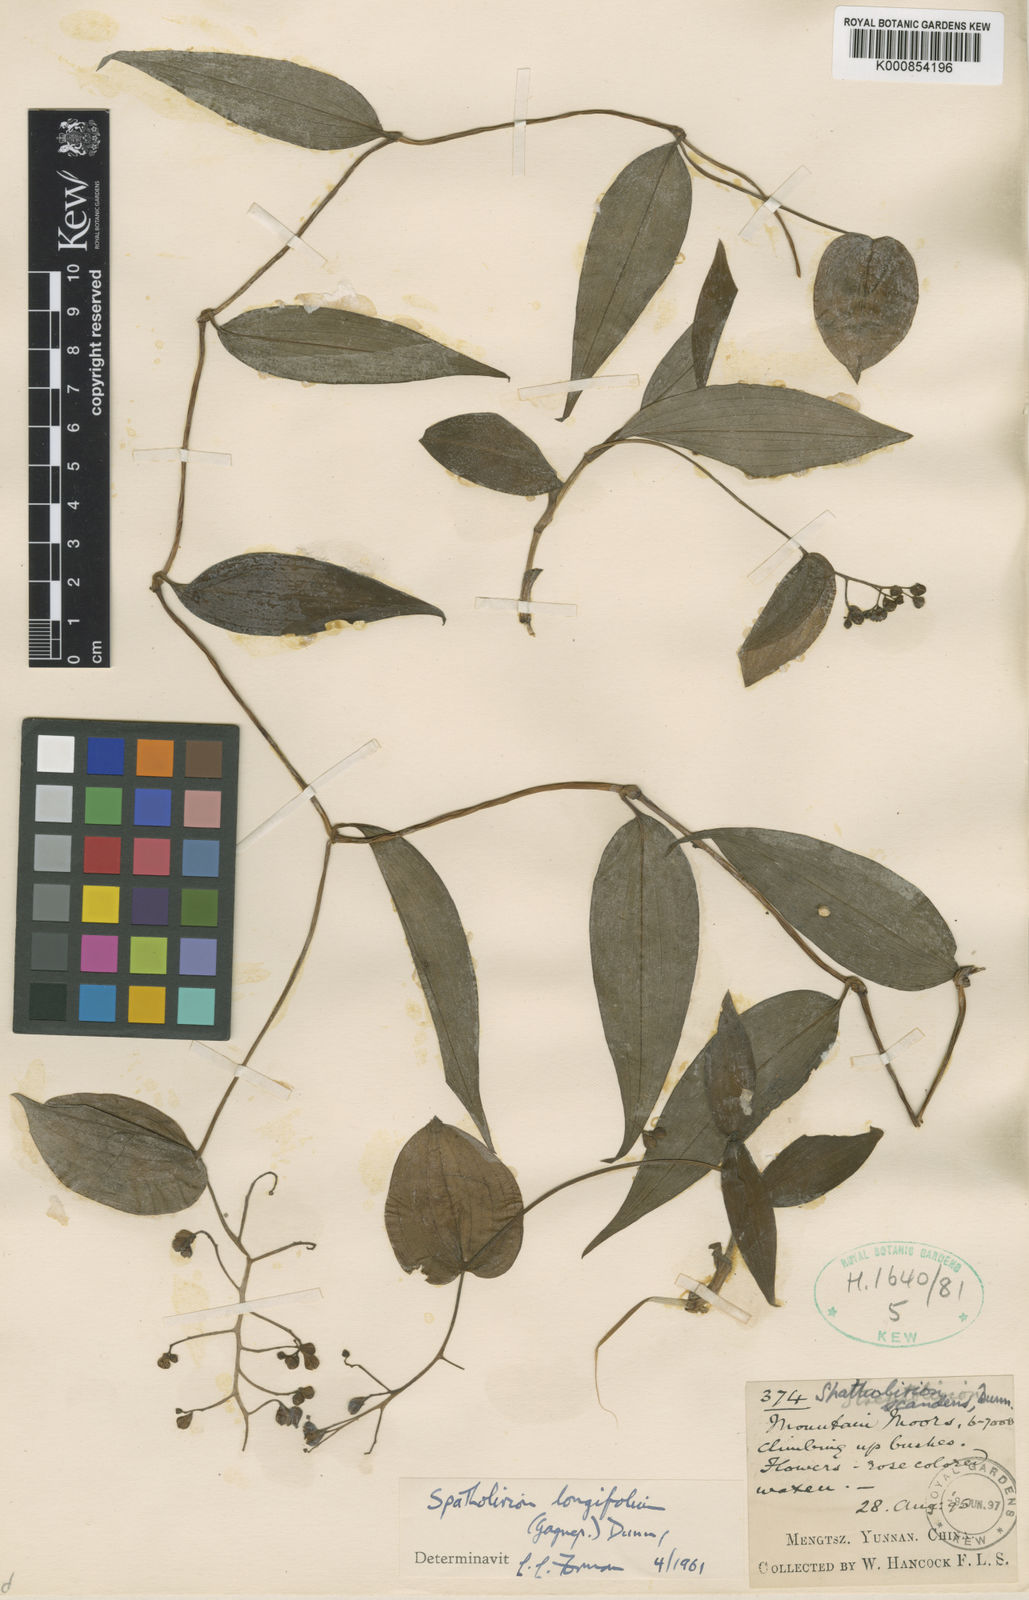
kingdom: Plantae
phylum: Tracheophyta
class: Liliopsida
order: Commelinales
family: Commelinaceae
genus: Spatholirion
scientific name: Spatholirion longifolium
